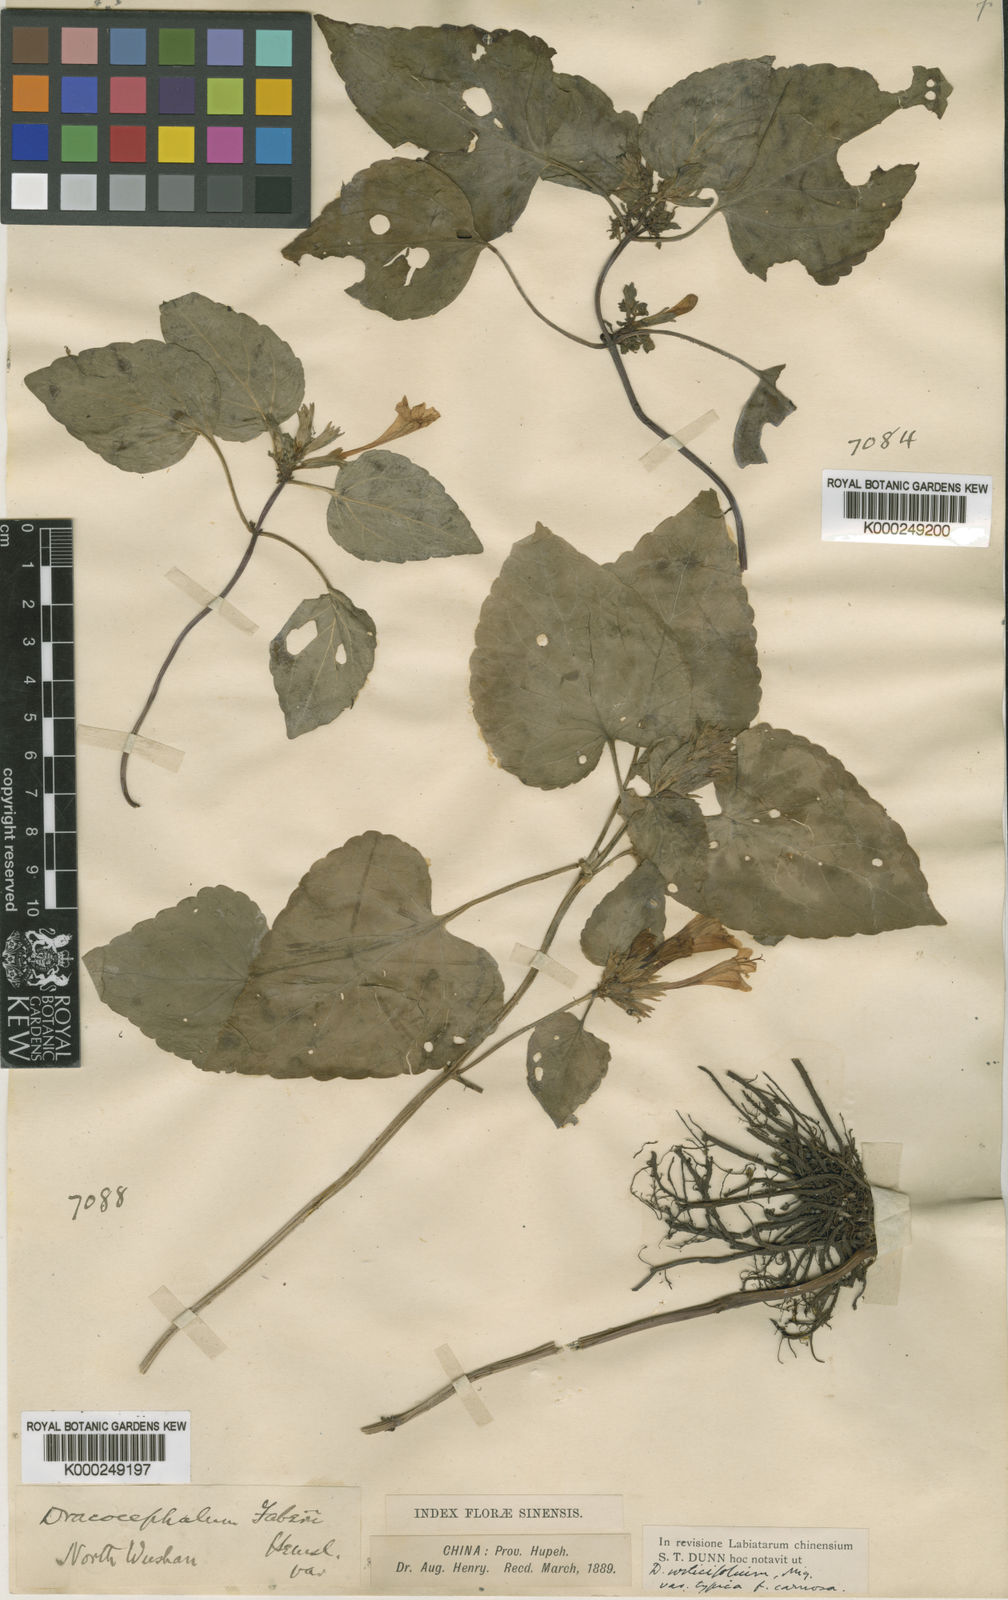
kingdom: Plantae
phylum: Tracheophyta
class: Magnoliopsida
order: Lamiales
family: Lamiaceae
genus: Meehania
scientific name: Meehania faberi
